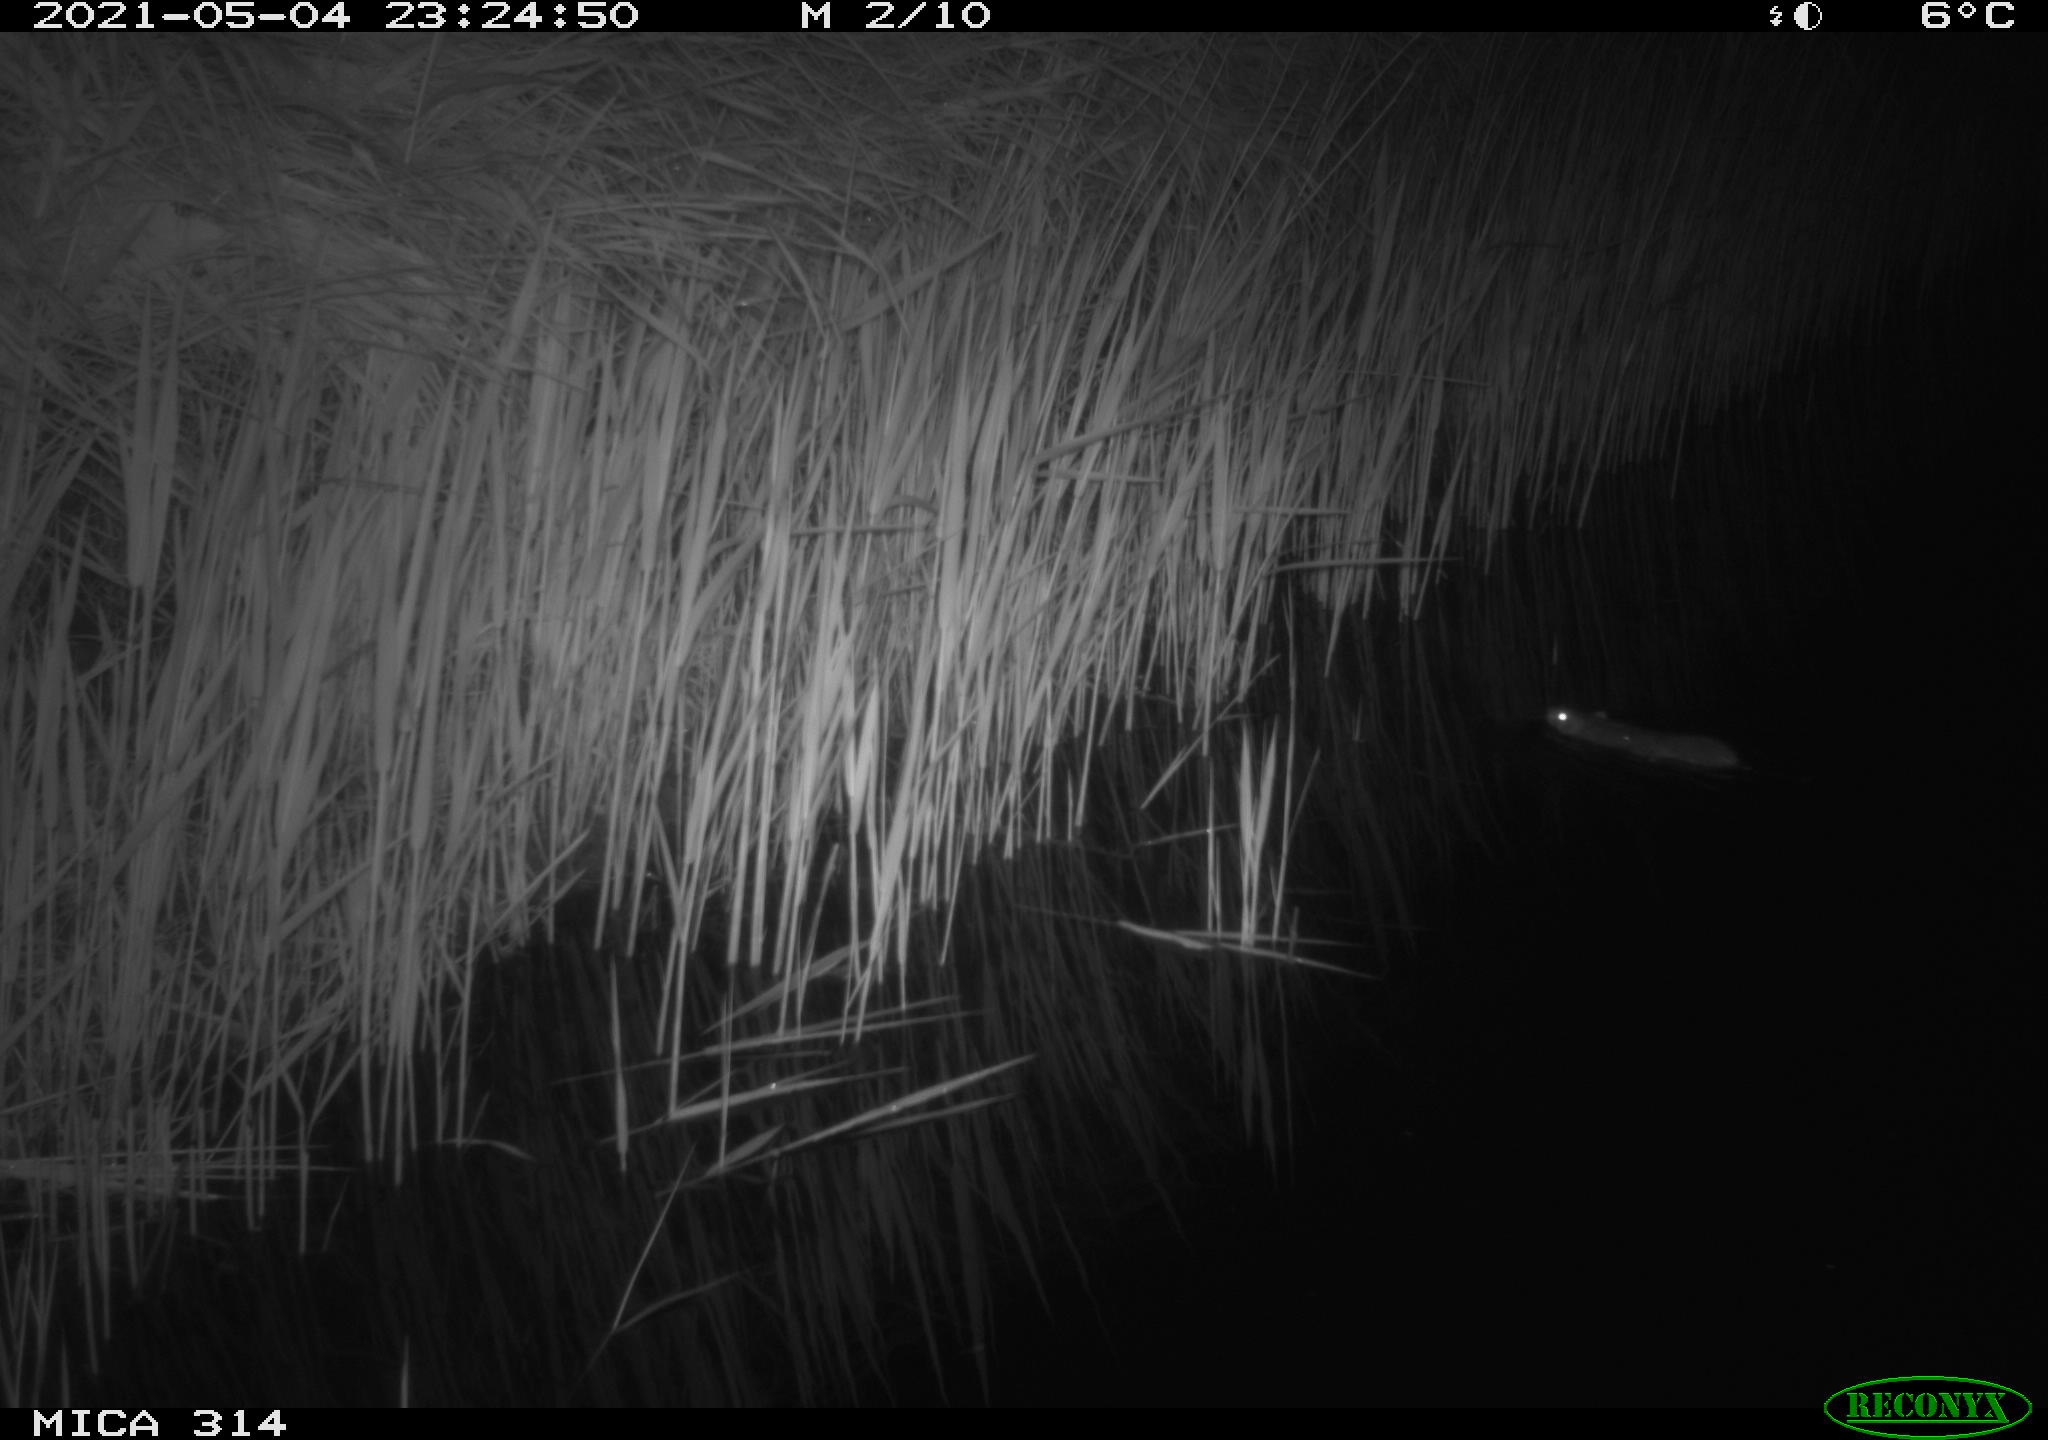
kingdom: Animalia
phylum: Chordata
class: Mammalia
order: Rodentia
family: Muridae
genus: Rattus
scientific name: Rattus norvegicus
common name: Brown rat
